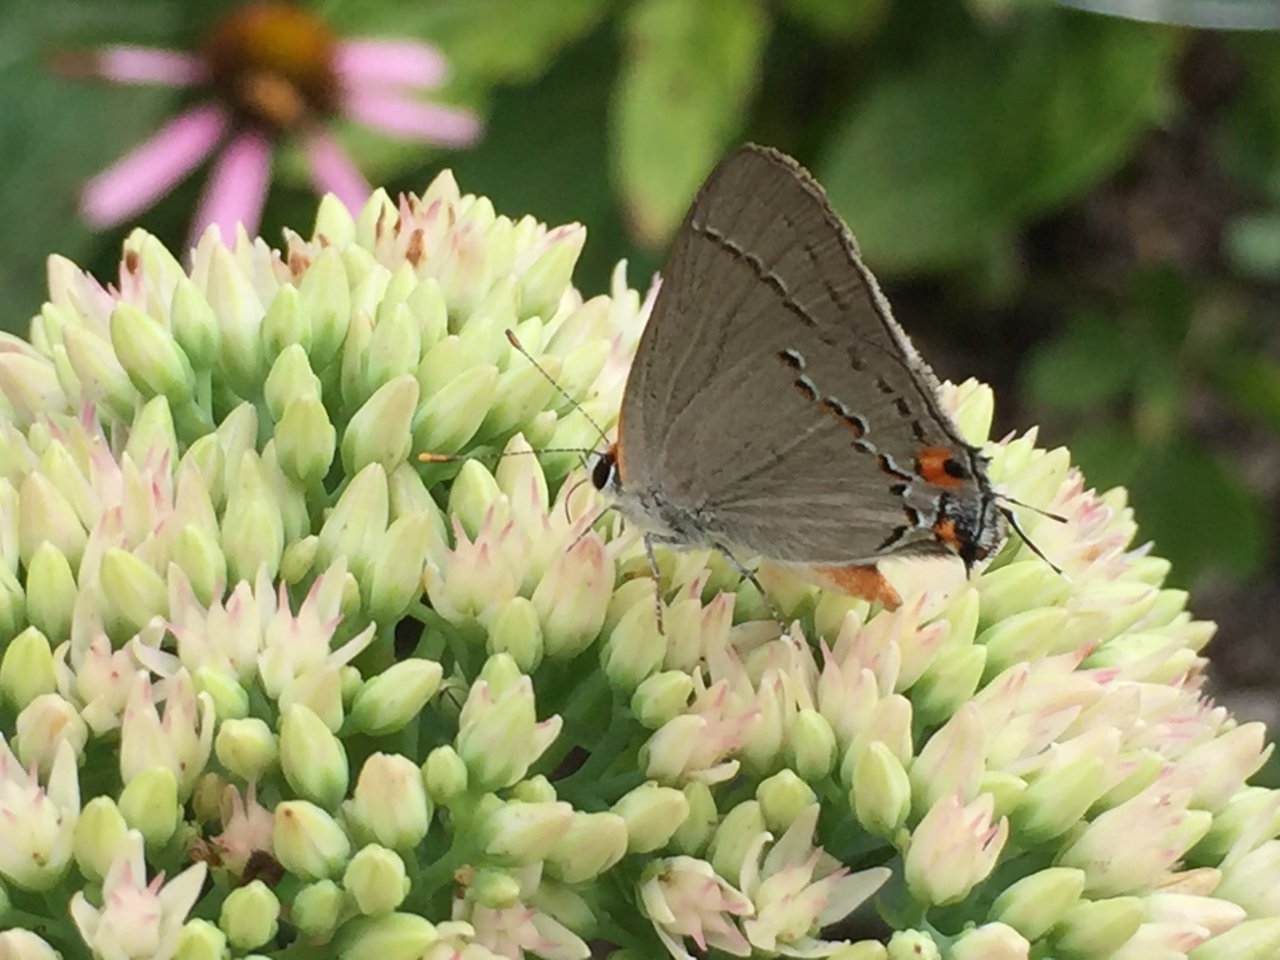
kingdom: Animalia
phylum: Arthropoda
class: Insecta
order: Lepidoptera
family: Lycaenidae
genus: Strymon
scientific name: Strymon melinus
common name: Gray Hairstreak
